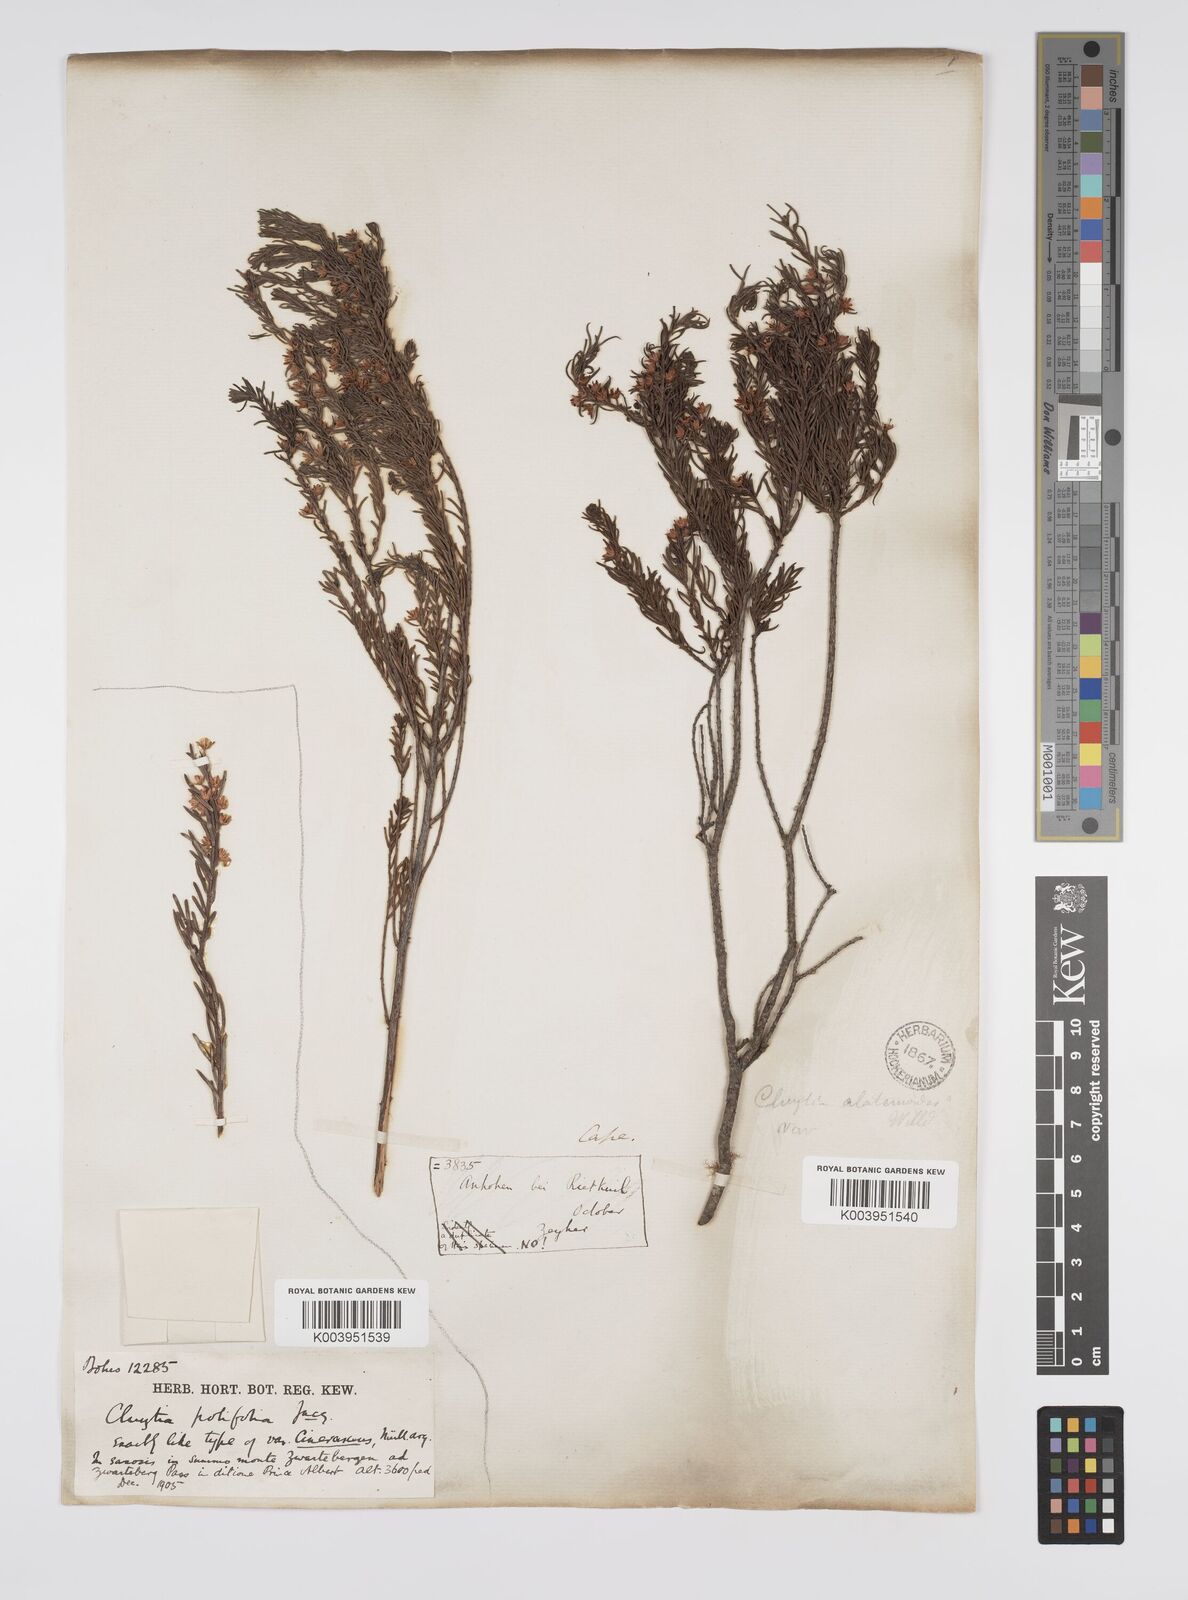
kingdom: Plantae
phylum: Tracheophyta
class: Magnoliopsida
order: Malpighiales
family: Peraceae
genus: Clutia
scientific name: Clutia
